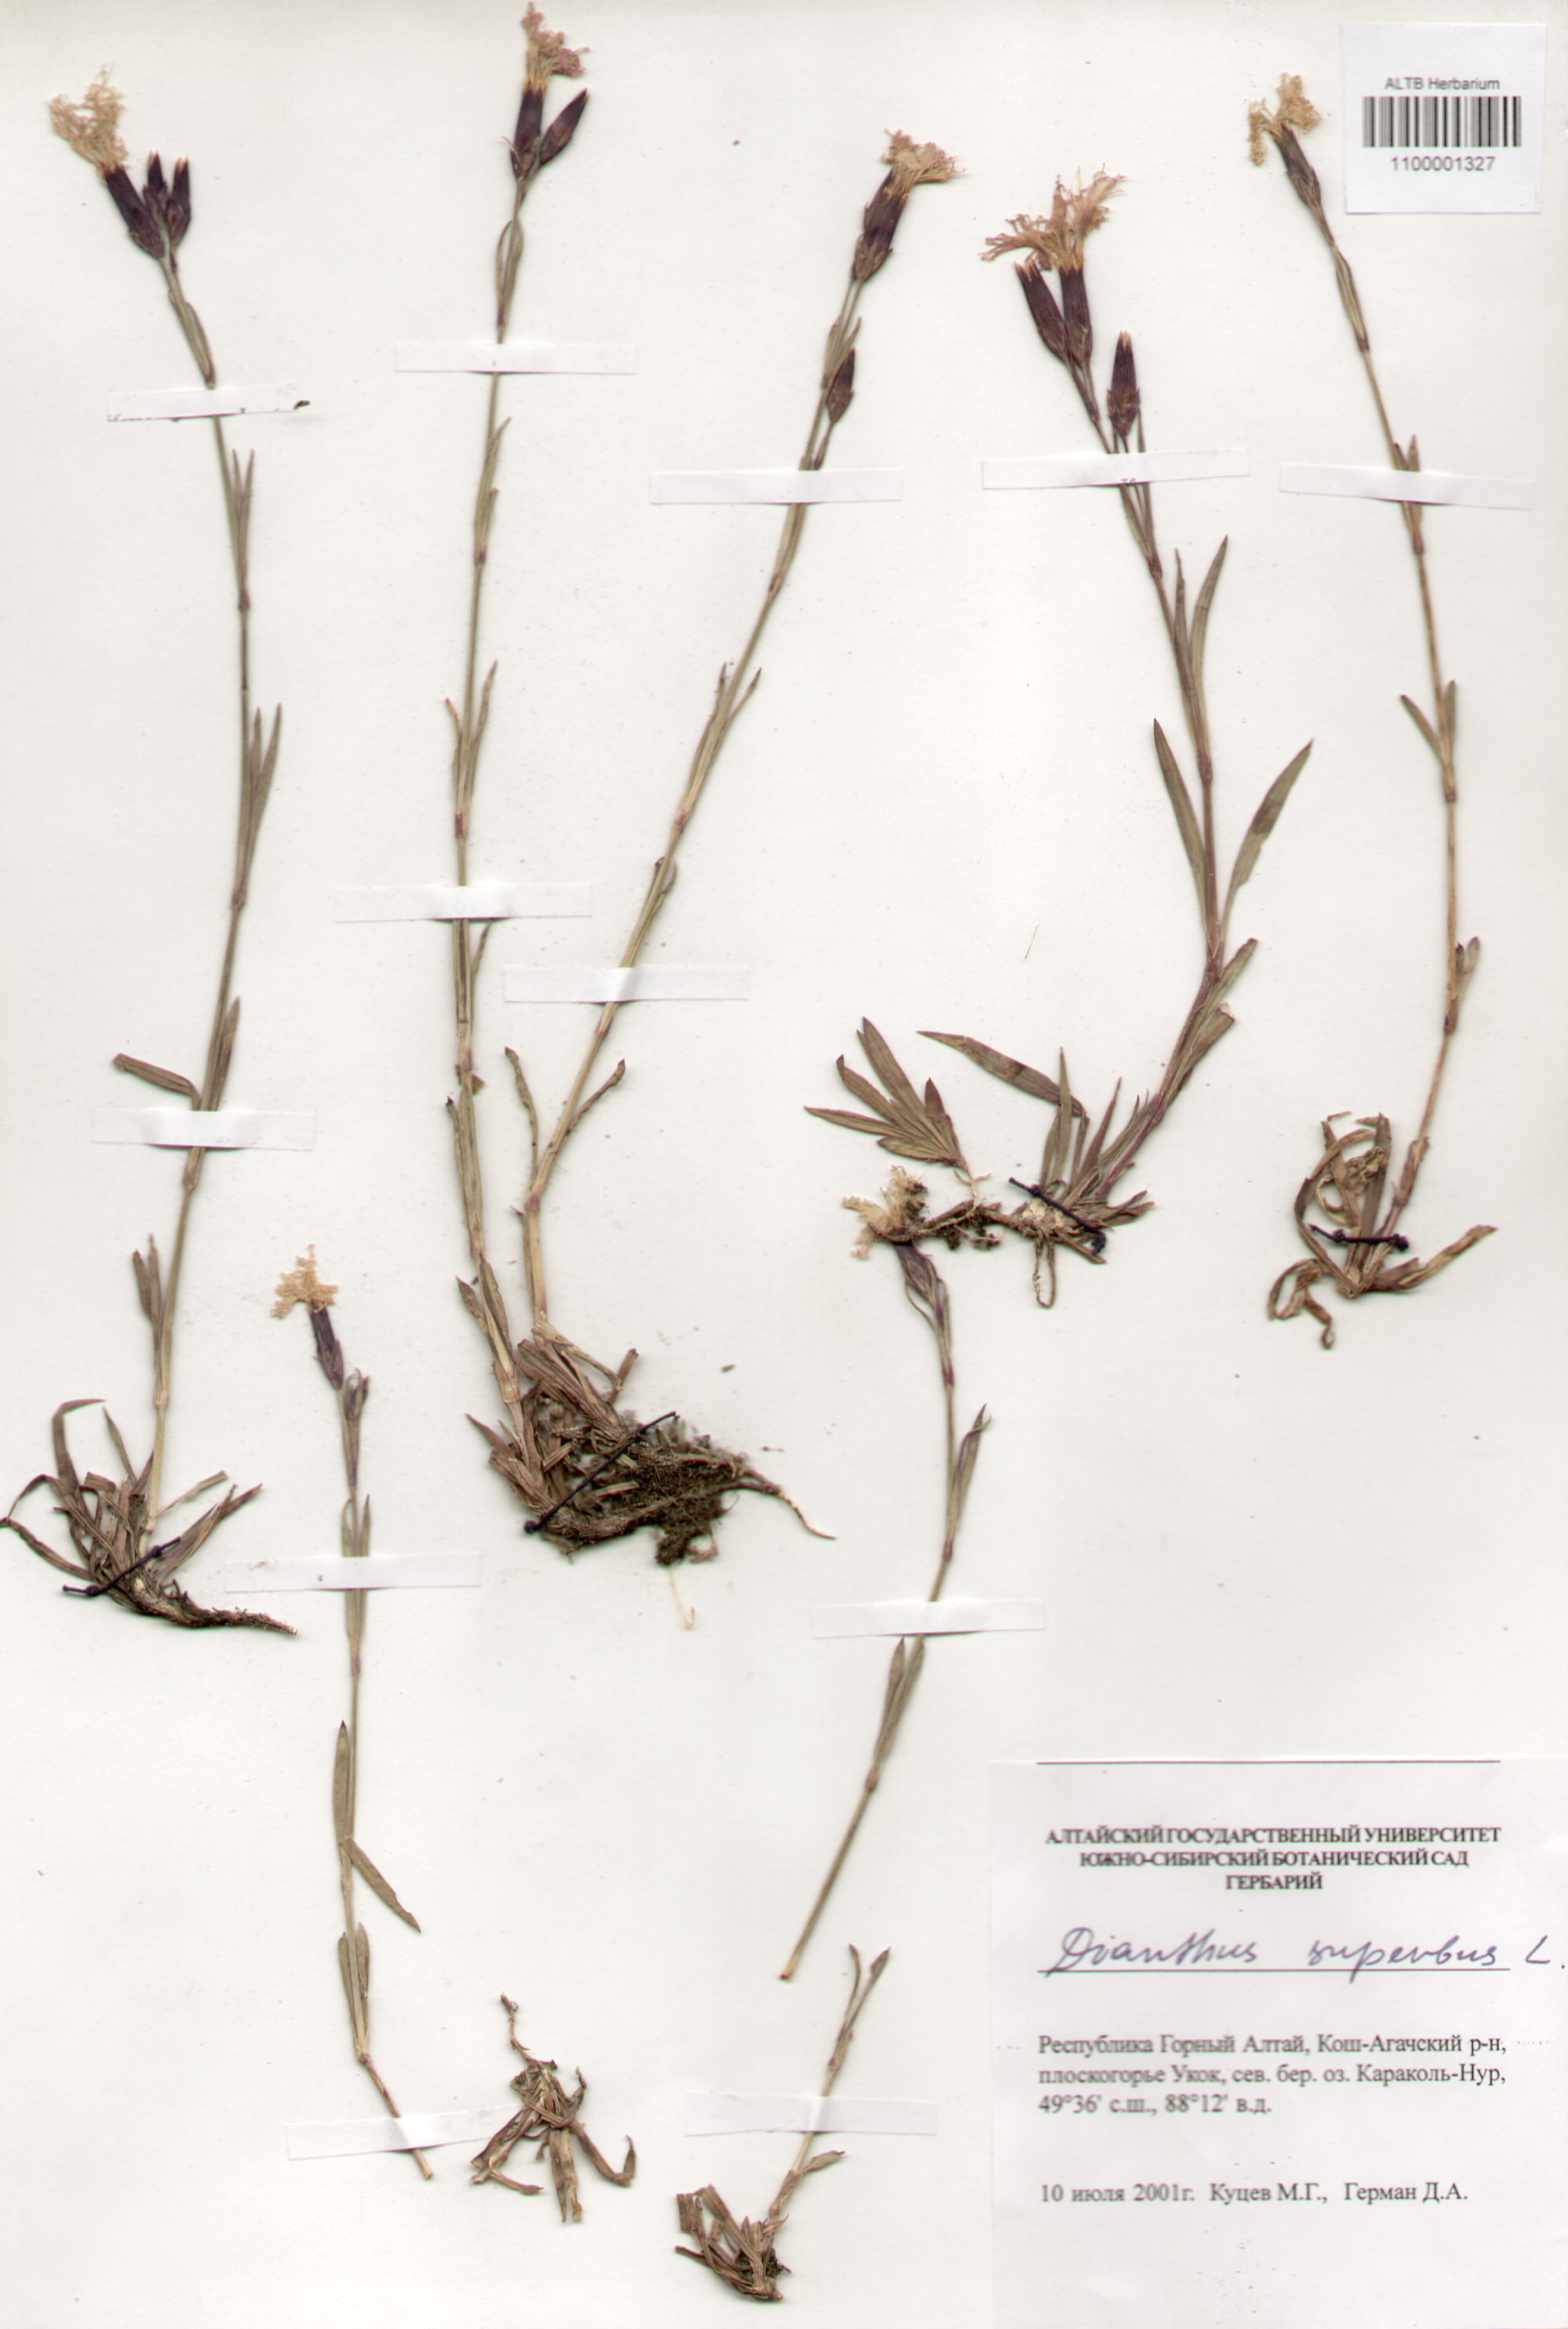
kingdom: Plantae
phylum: Tracheophyta
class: Magnoliopsida
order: Caryophyllales
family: Caryophyllaceae
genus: Dianthus
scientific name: Dianthus superbus
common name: Fringed pink
